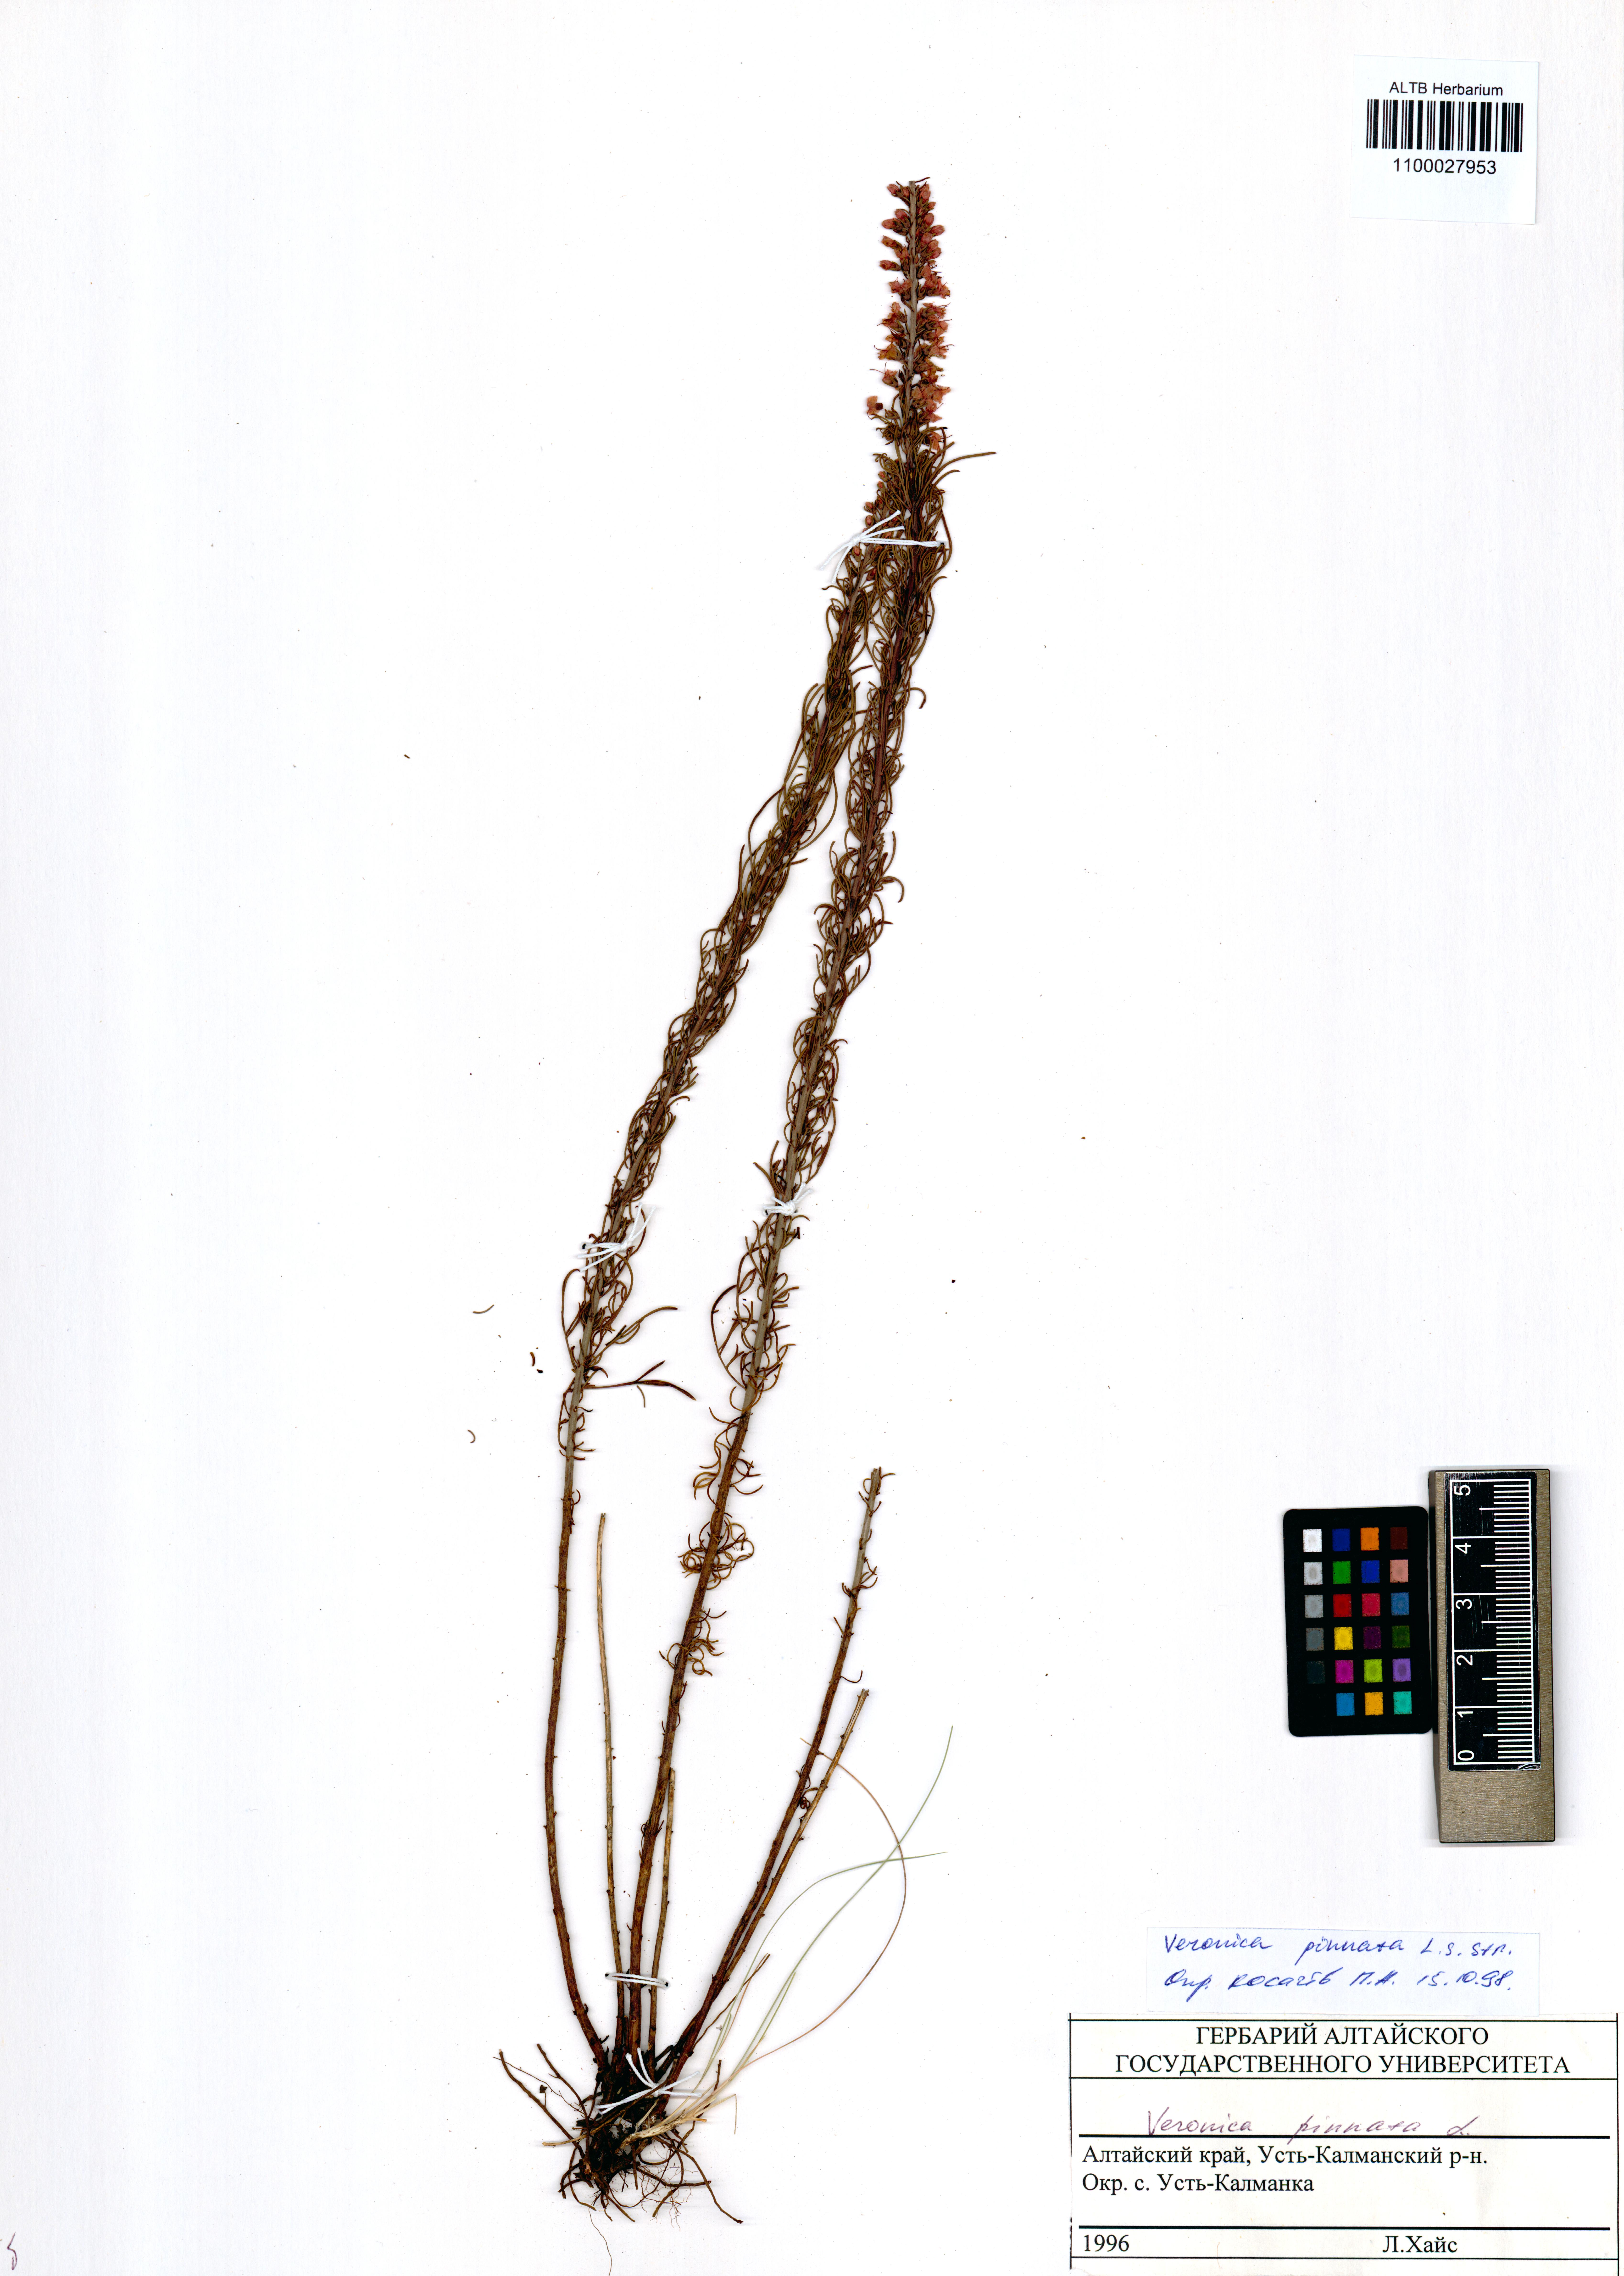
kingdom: Plantae
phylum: Tracheophyta
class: Magnoliopsida
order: Lamiales
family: Plantaginaceae
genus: Veronica
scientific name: Veronica pinnata
